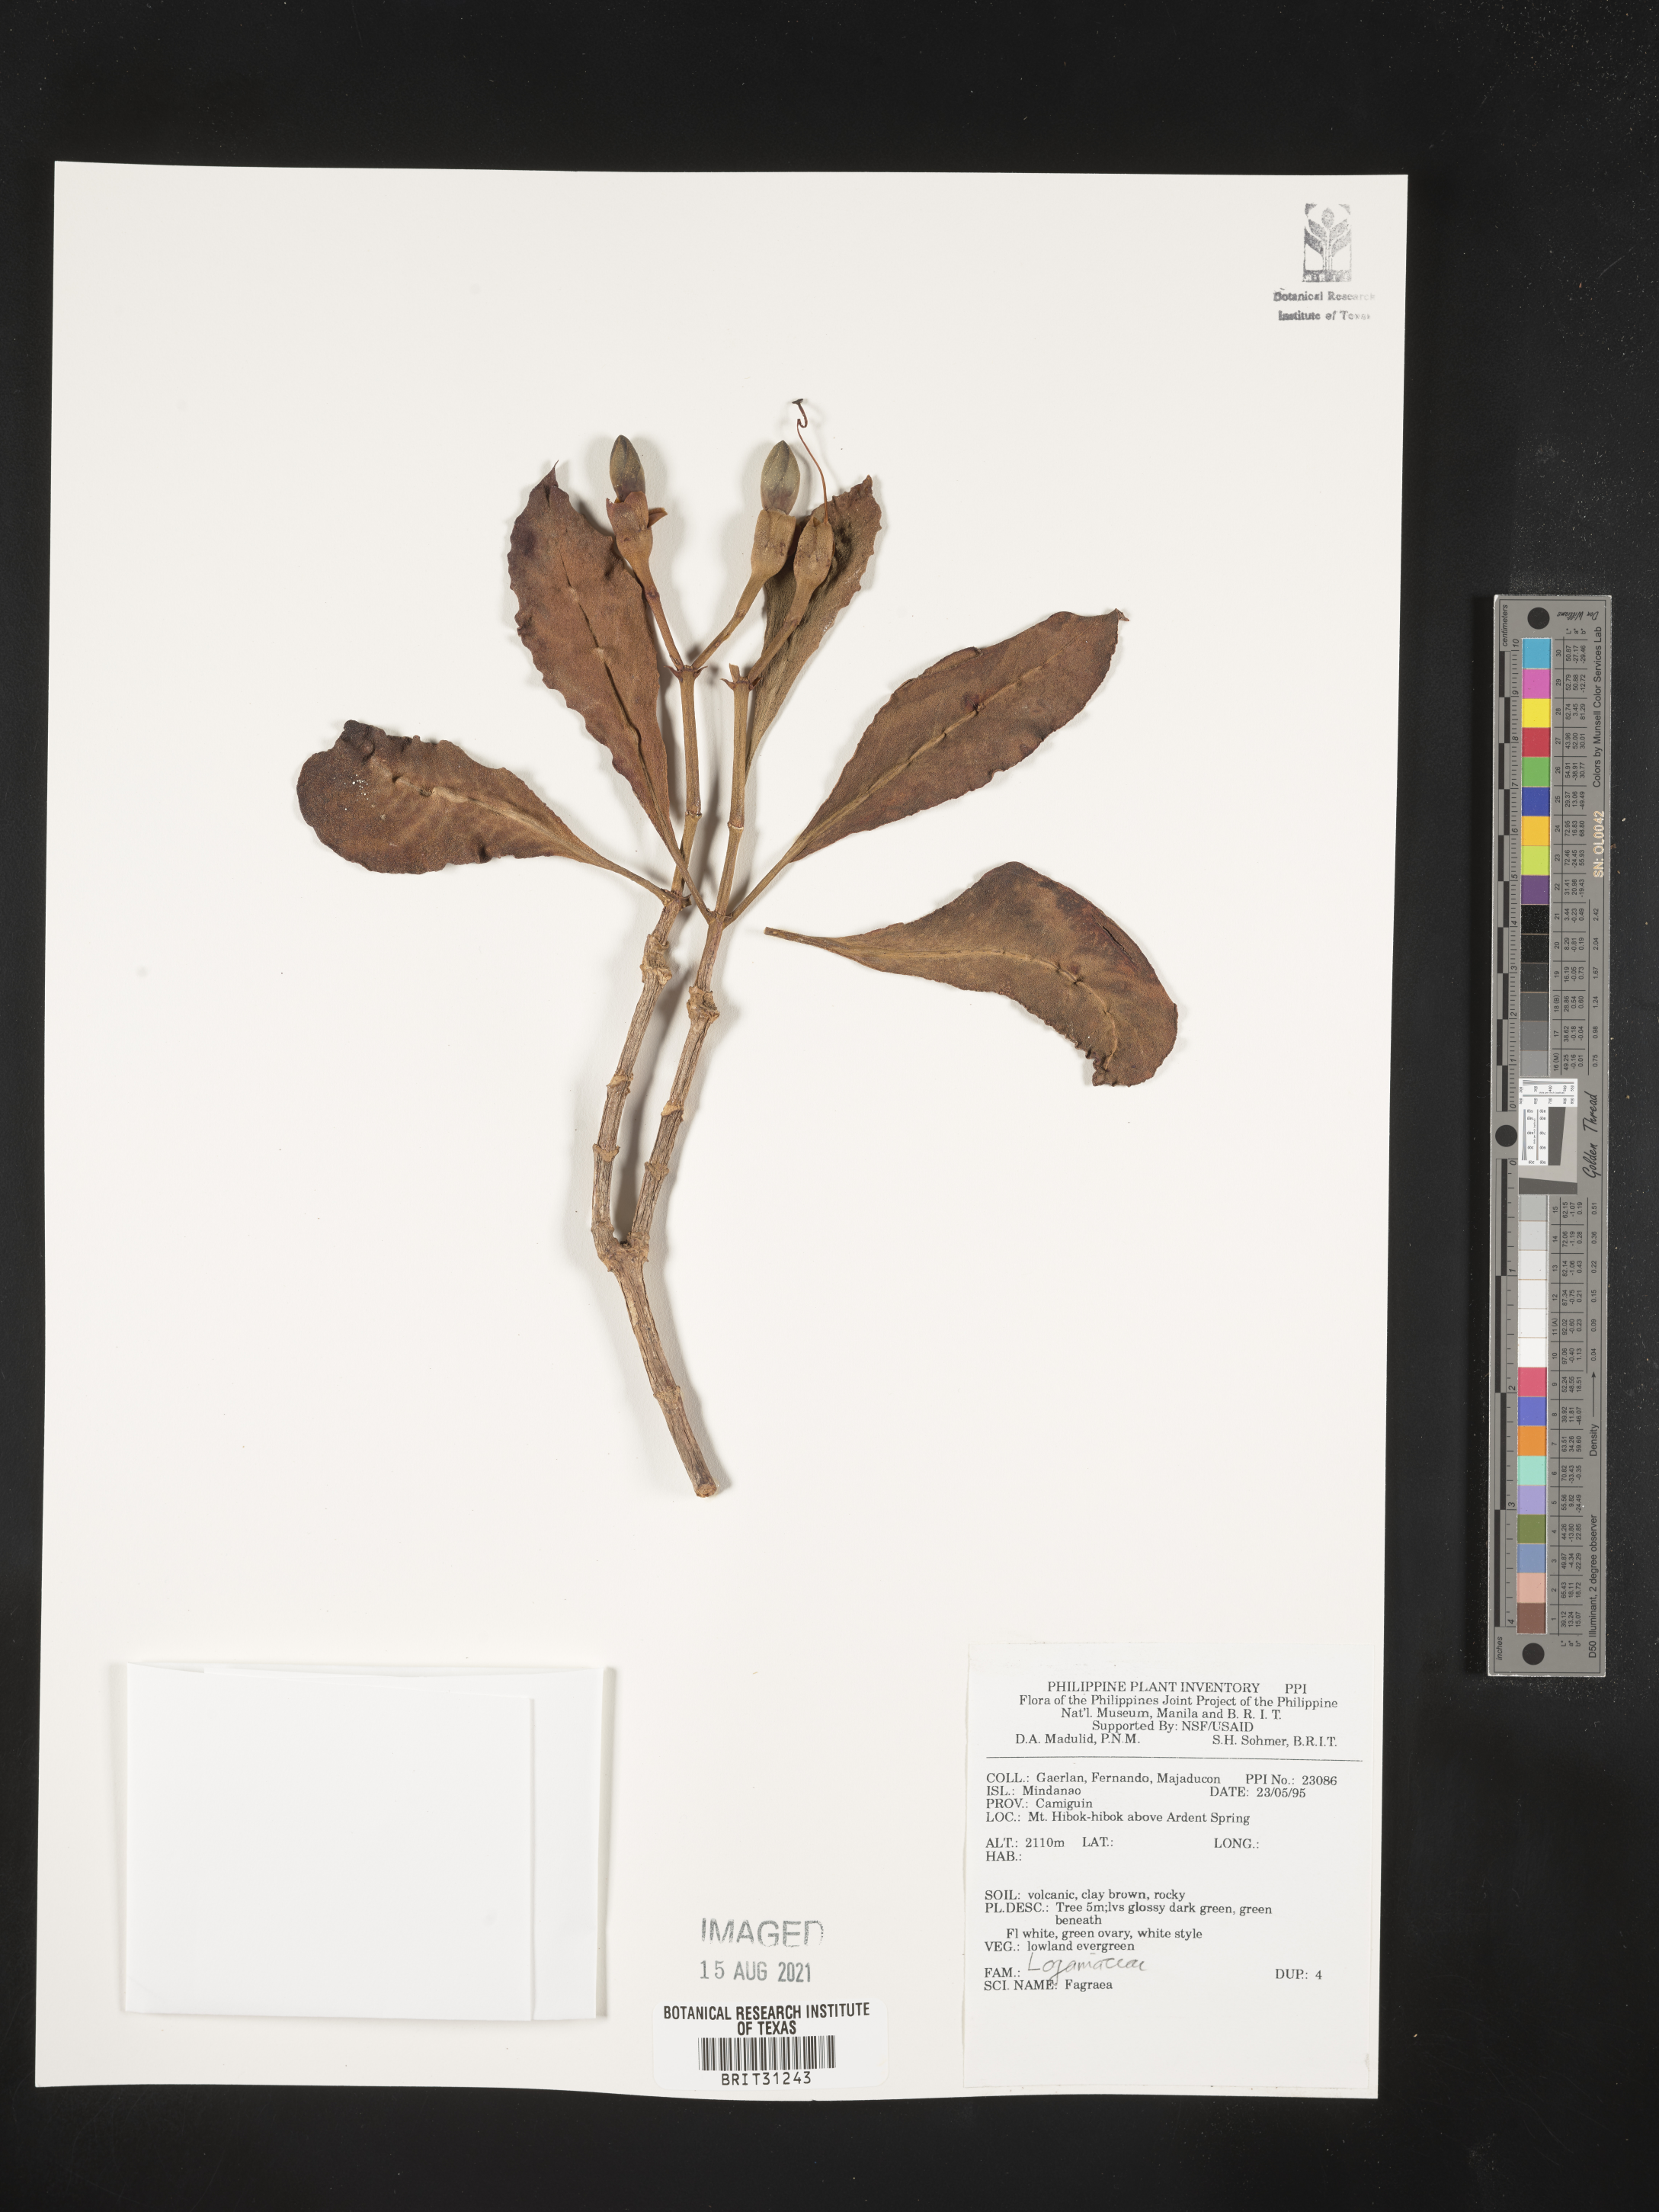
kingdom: Plantae
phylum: Tracheophyta
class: Magnoliopsida
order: Gentianales
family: Gentianaceae
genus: Fagraea
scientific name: Fagraea
